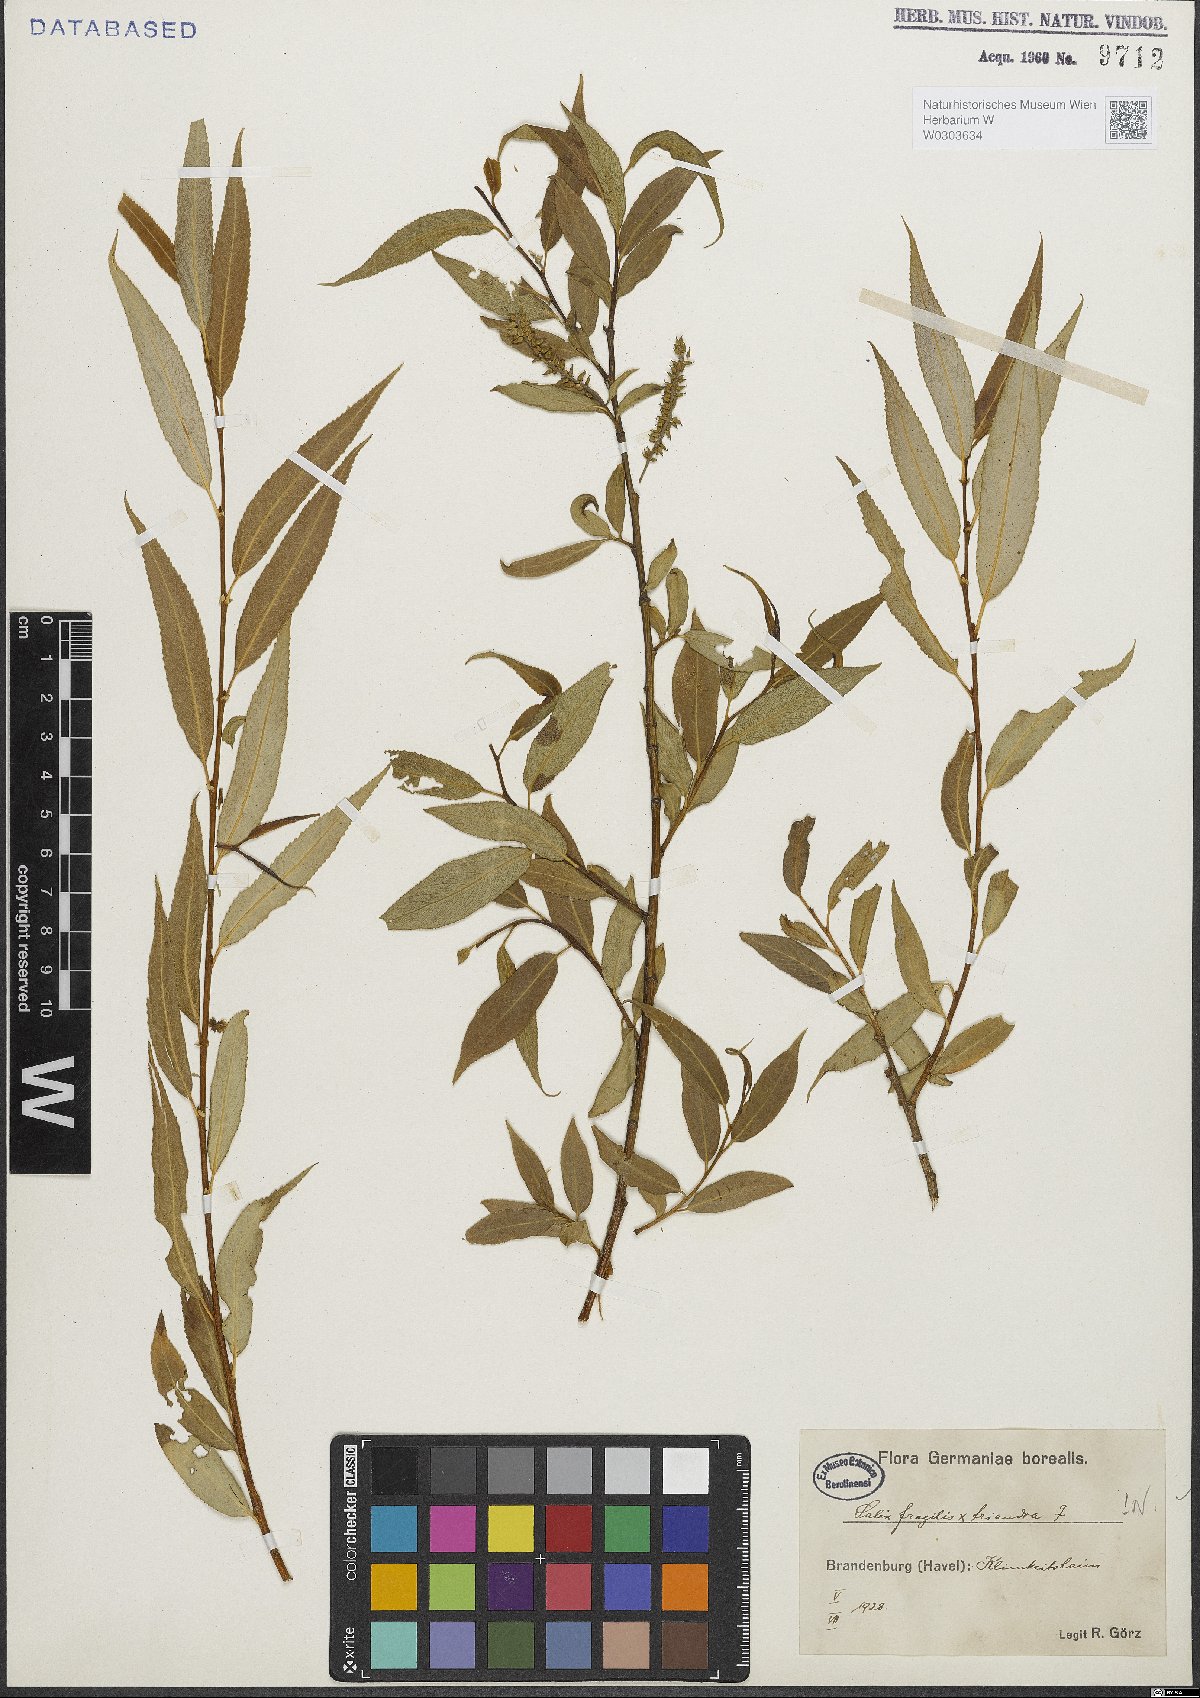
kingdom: Plantae
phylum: Tracheophyta
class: Magnoliopsida
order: Malpighiales
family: Salicaceae
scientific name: Salicaceae
